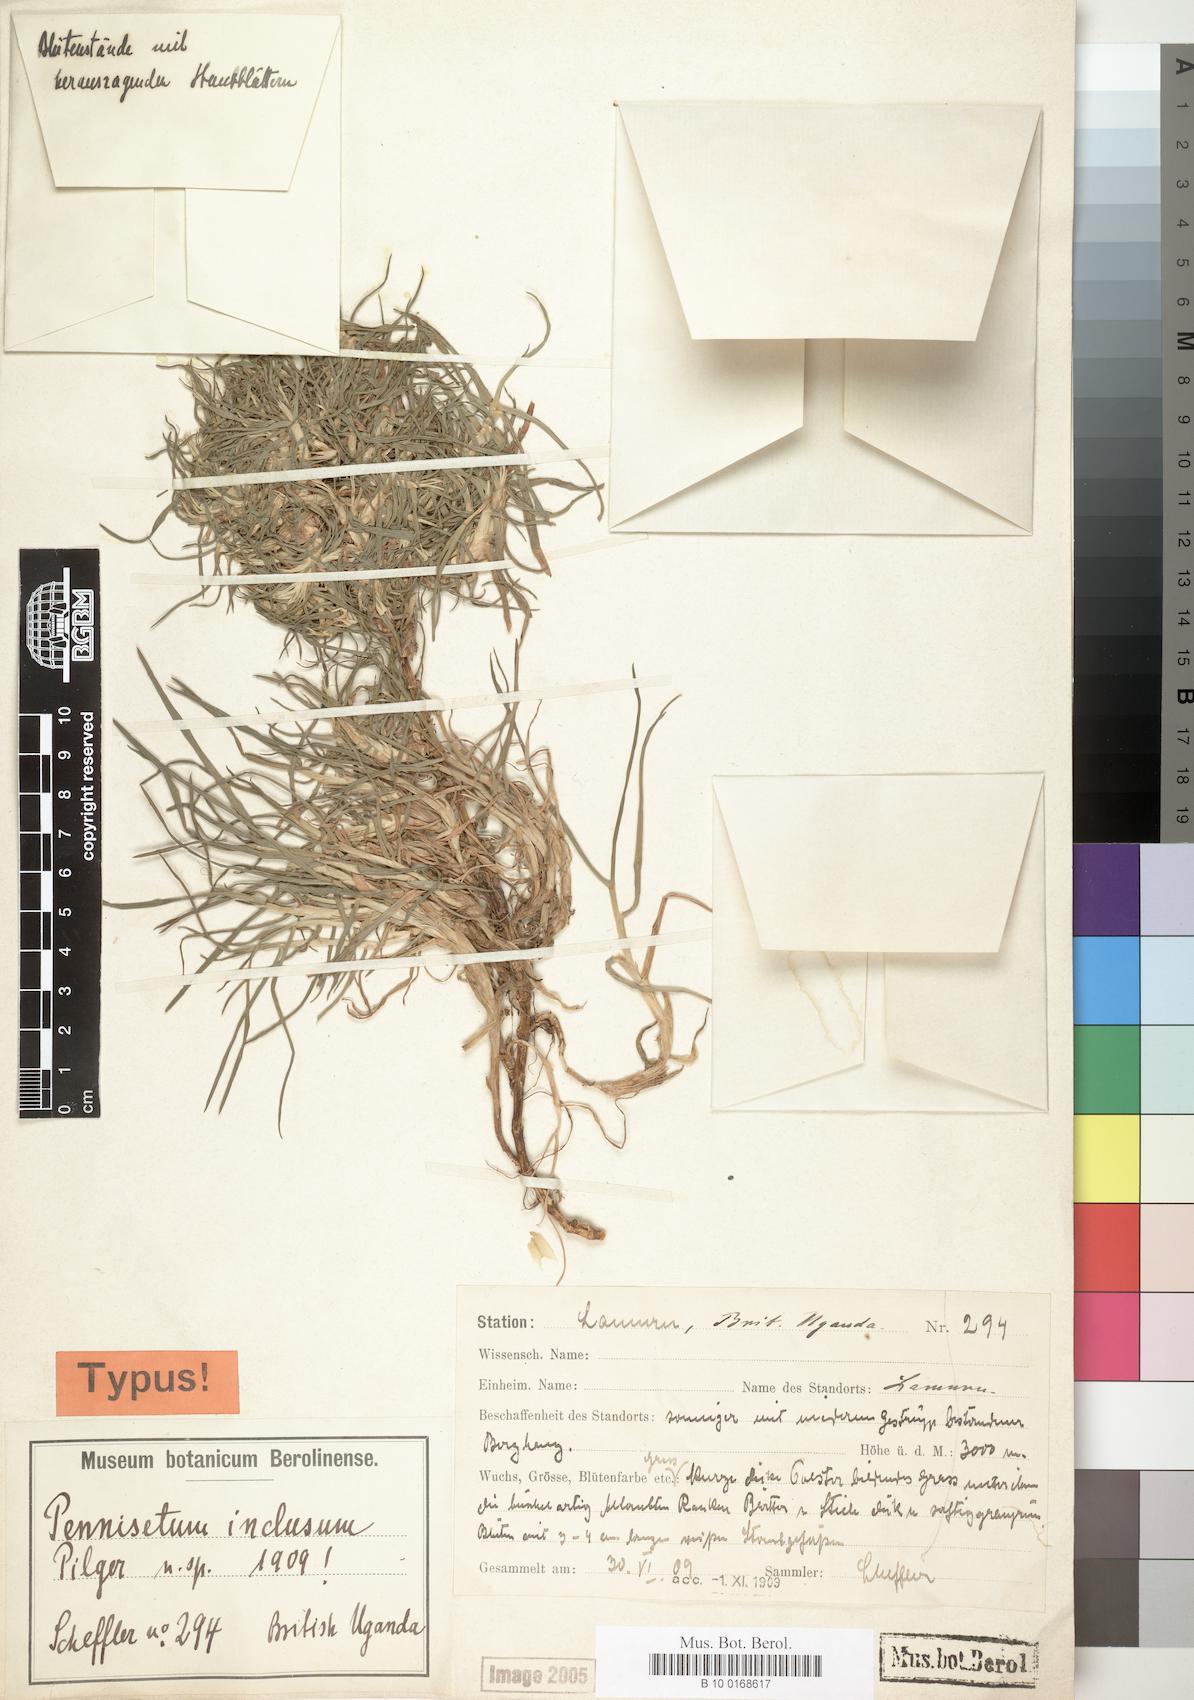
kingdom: Plantae
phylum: Tracheophyta
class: Liliopsida
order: Poales
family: Poaceae
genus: Cenchrus
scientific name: Cenchrus clandestinus
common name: Kikuyugrass
